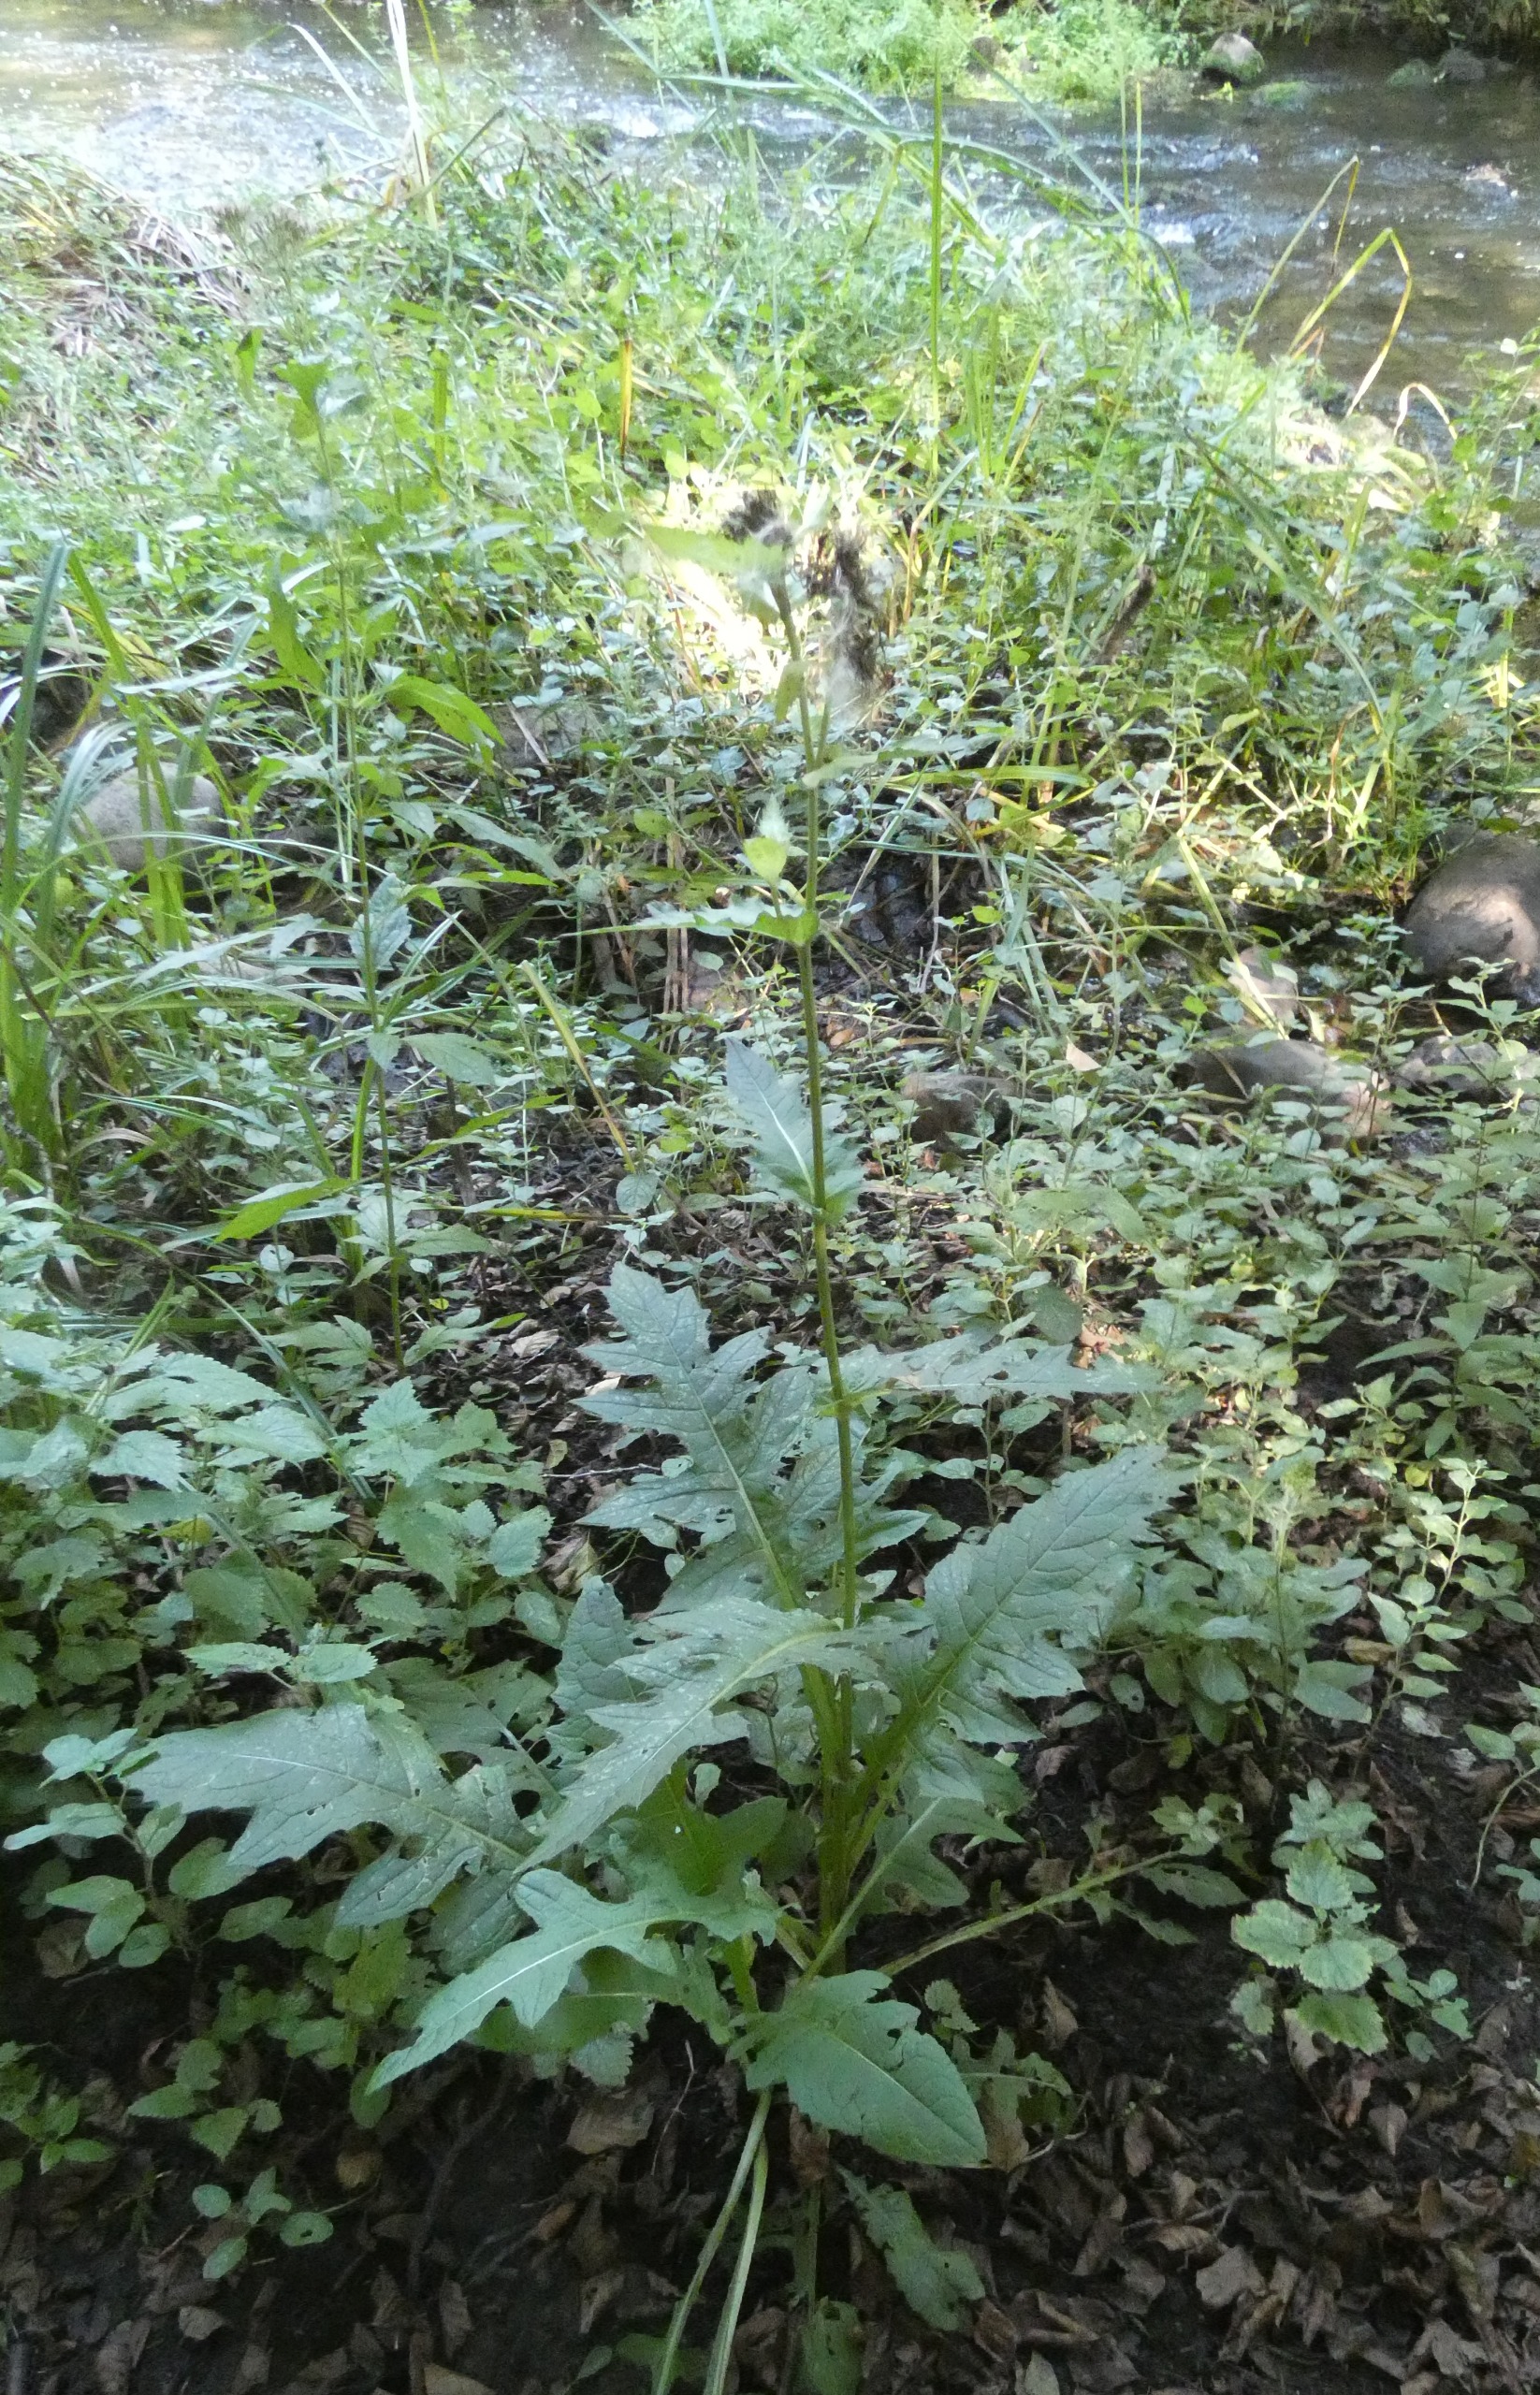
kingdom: Plantae
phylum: Tracheophyta
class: Magnoliopsida
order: Asterales
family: Asteraceae
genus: Cirsium
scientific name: Cirsium oleraceum
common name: Kål-tidsel
